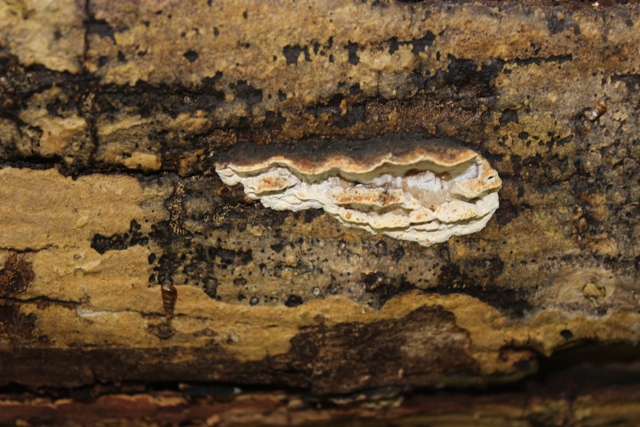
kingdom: Fungi
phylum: Basidiomycota
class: Agaricomycetes
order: Polyporales
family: Incrustoporiaceae
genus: Skeletocutis
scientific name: Skeletocutis nemoralis
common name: stor krystalporesvamp
